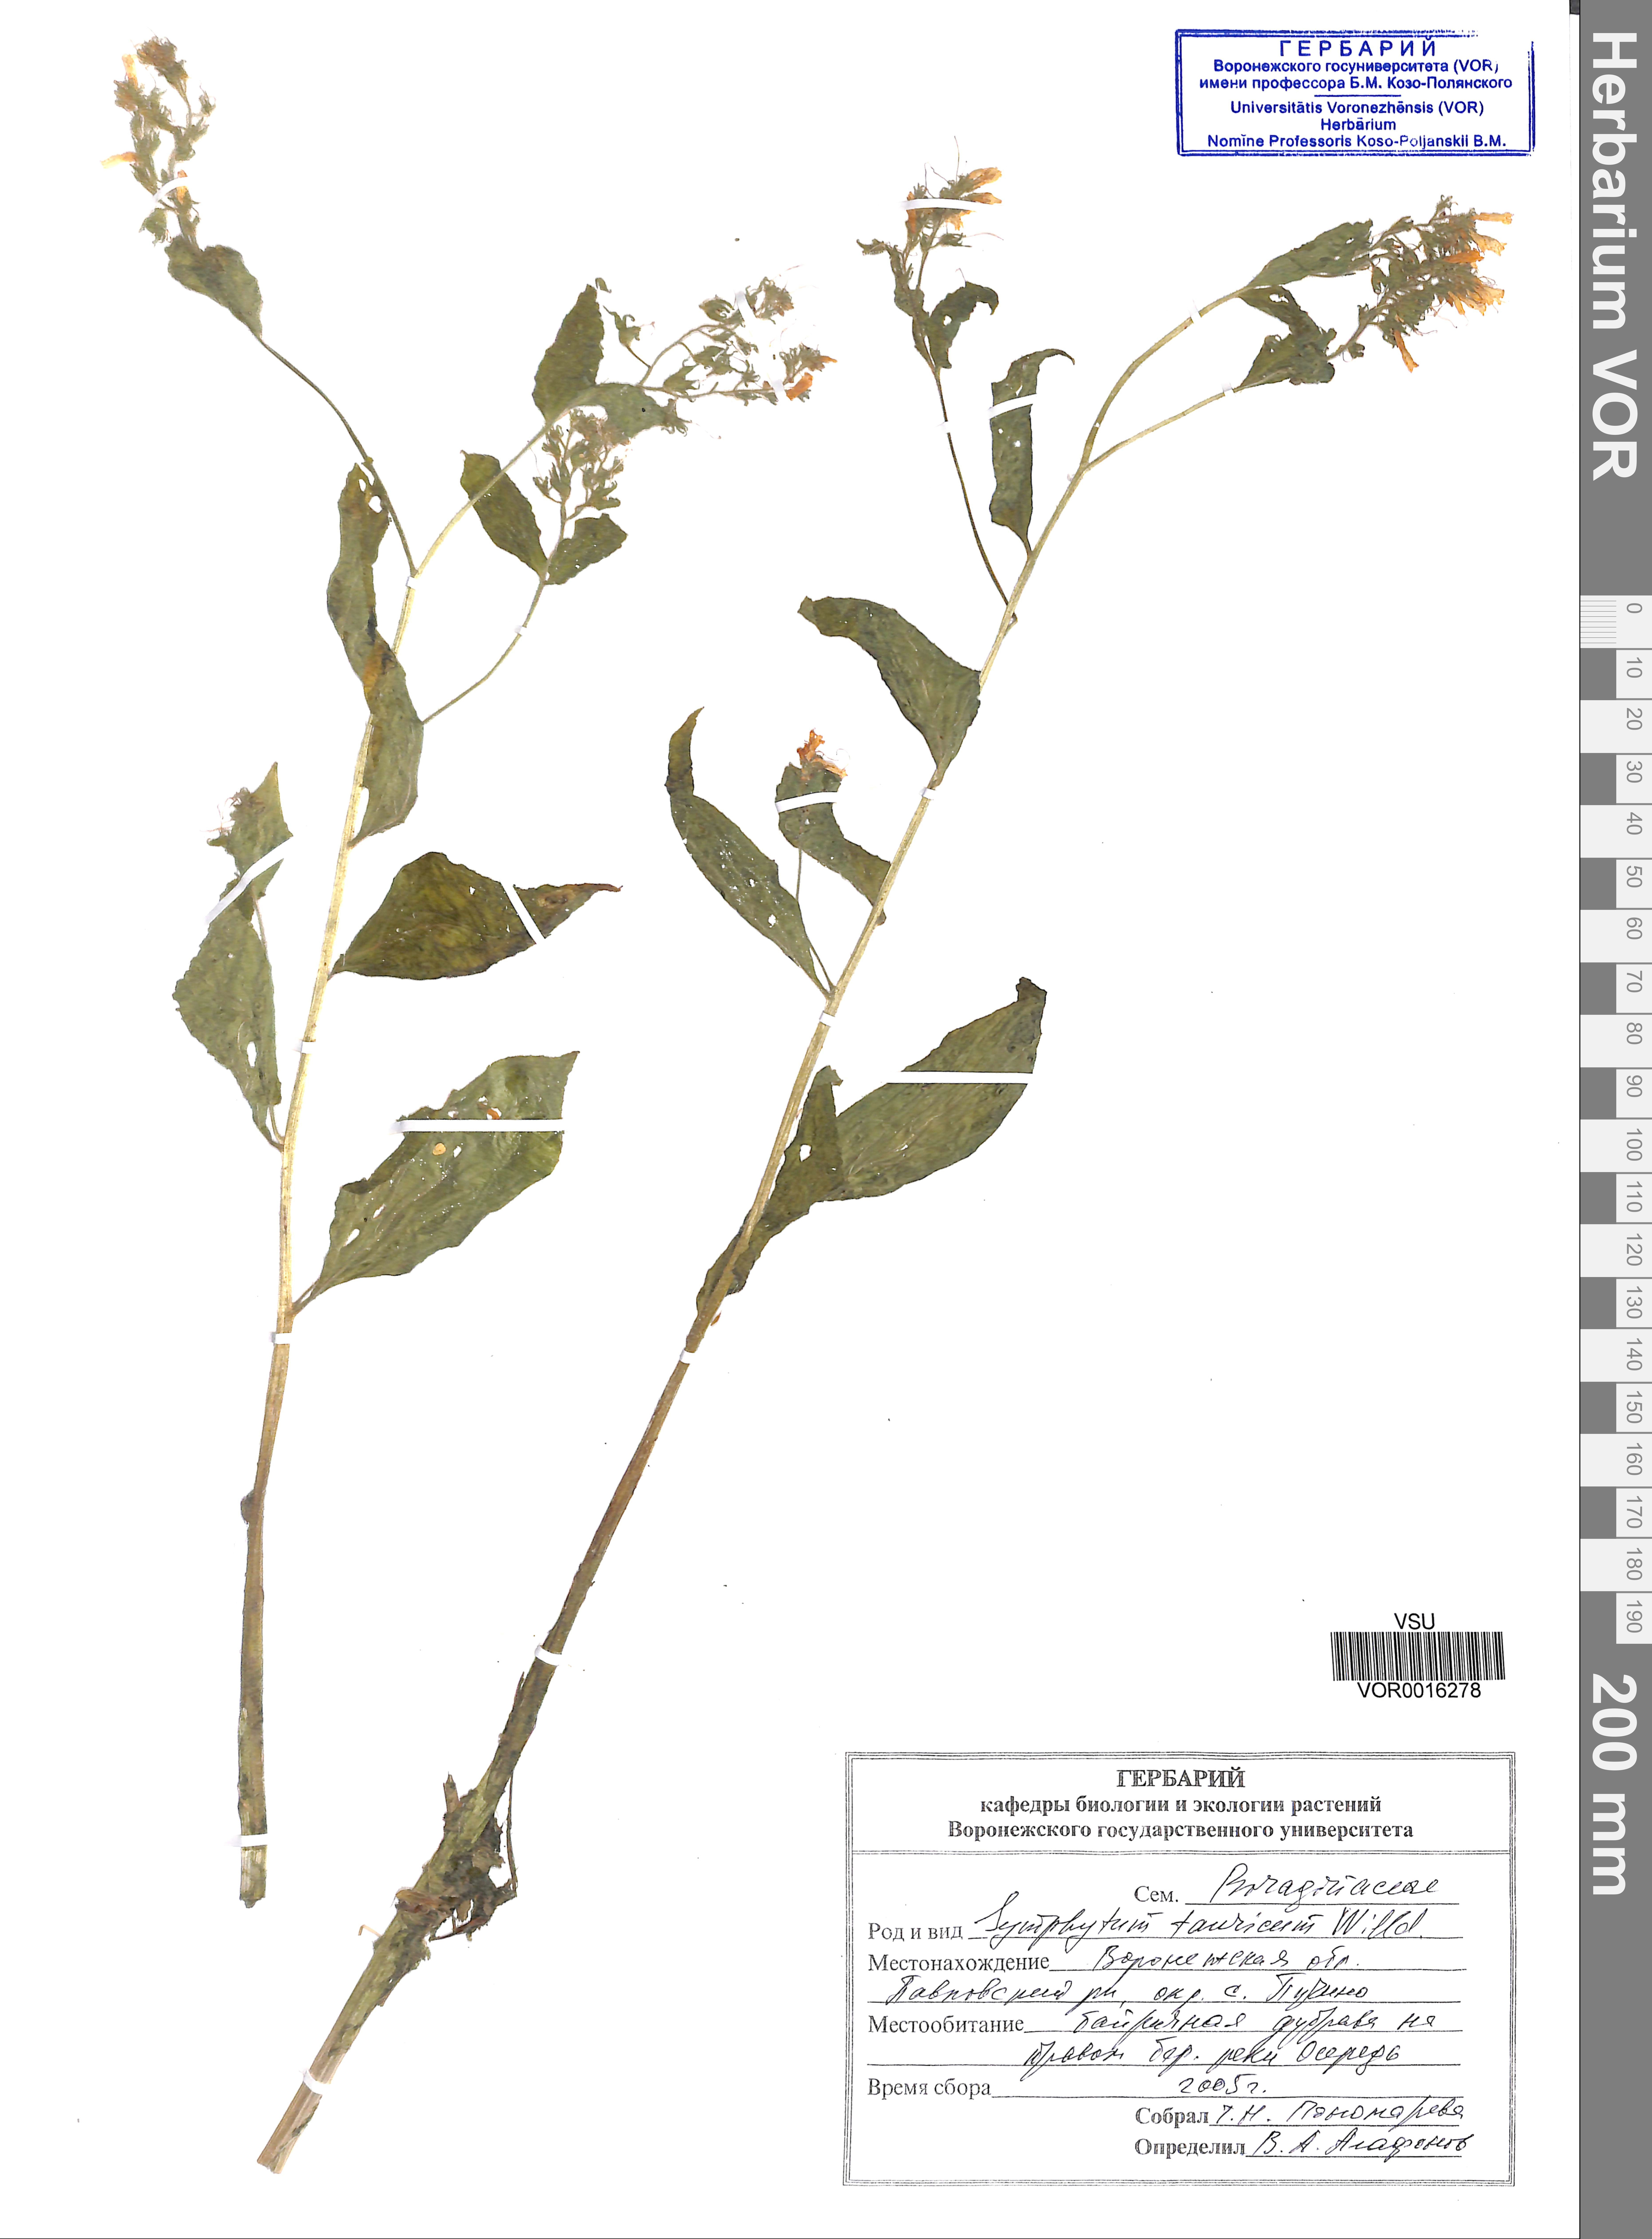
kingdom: Plantae
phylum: Tracheophyta
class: Magnoliopsida
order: Boraginales
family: Boraginaceae
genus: Symphytum
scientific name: Symphytum tauricum
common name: Crimean comfrey
